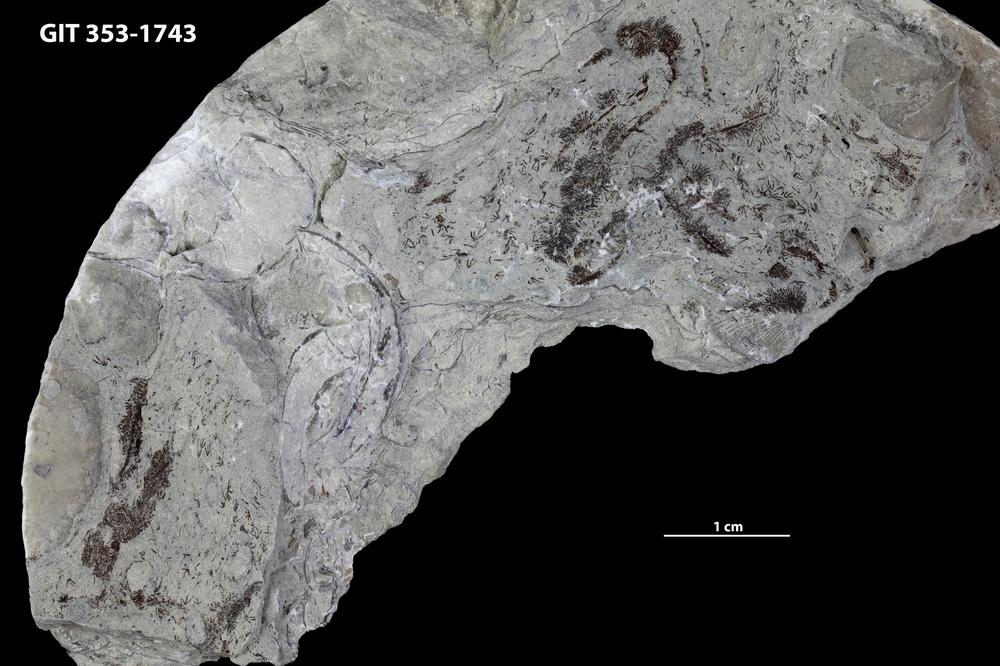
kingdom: Plantae
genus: Leveilleites
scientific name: Leveilleites hartnageli
